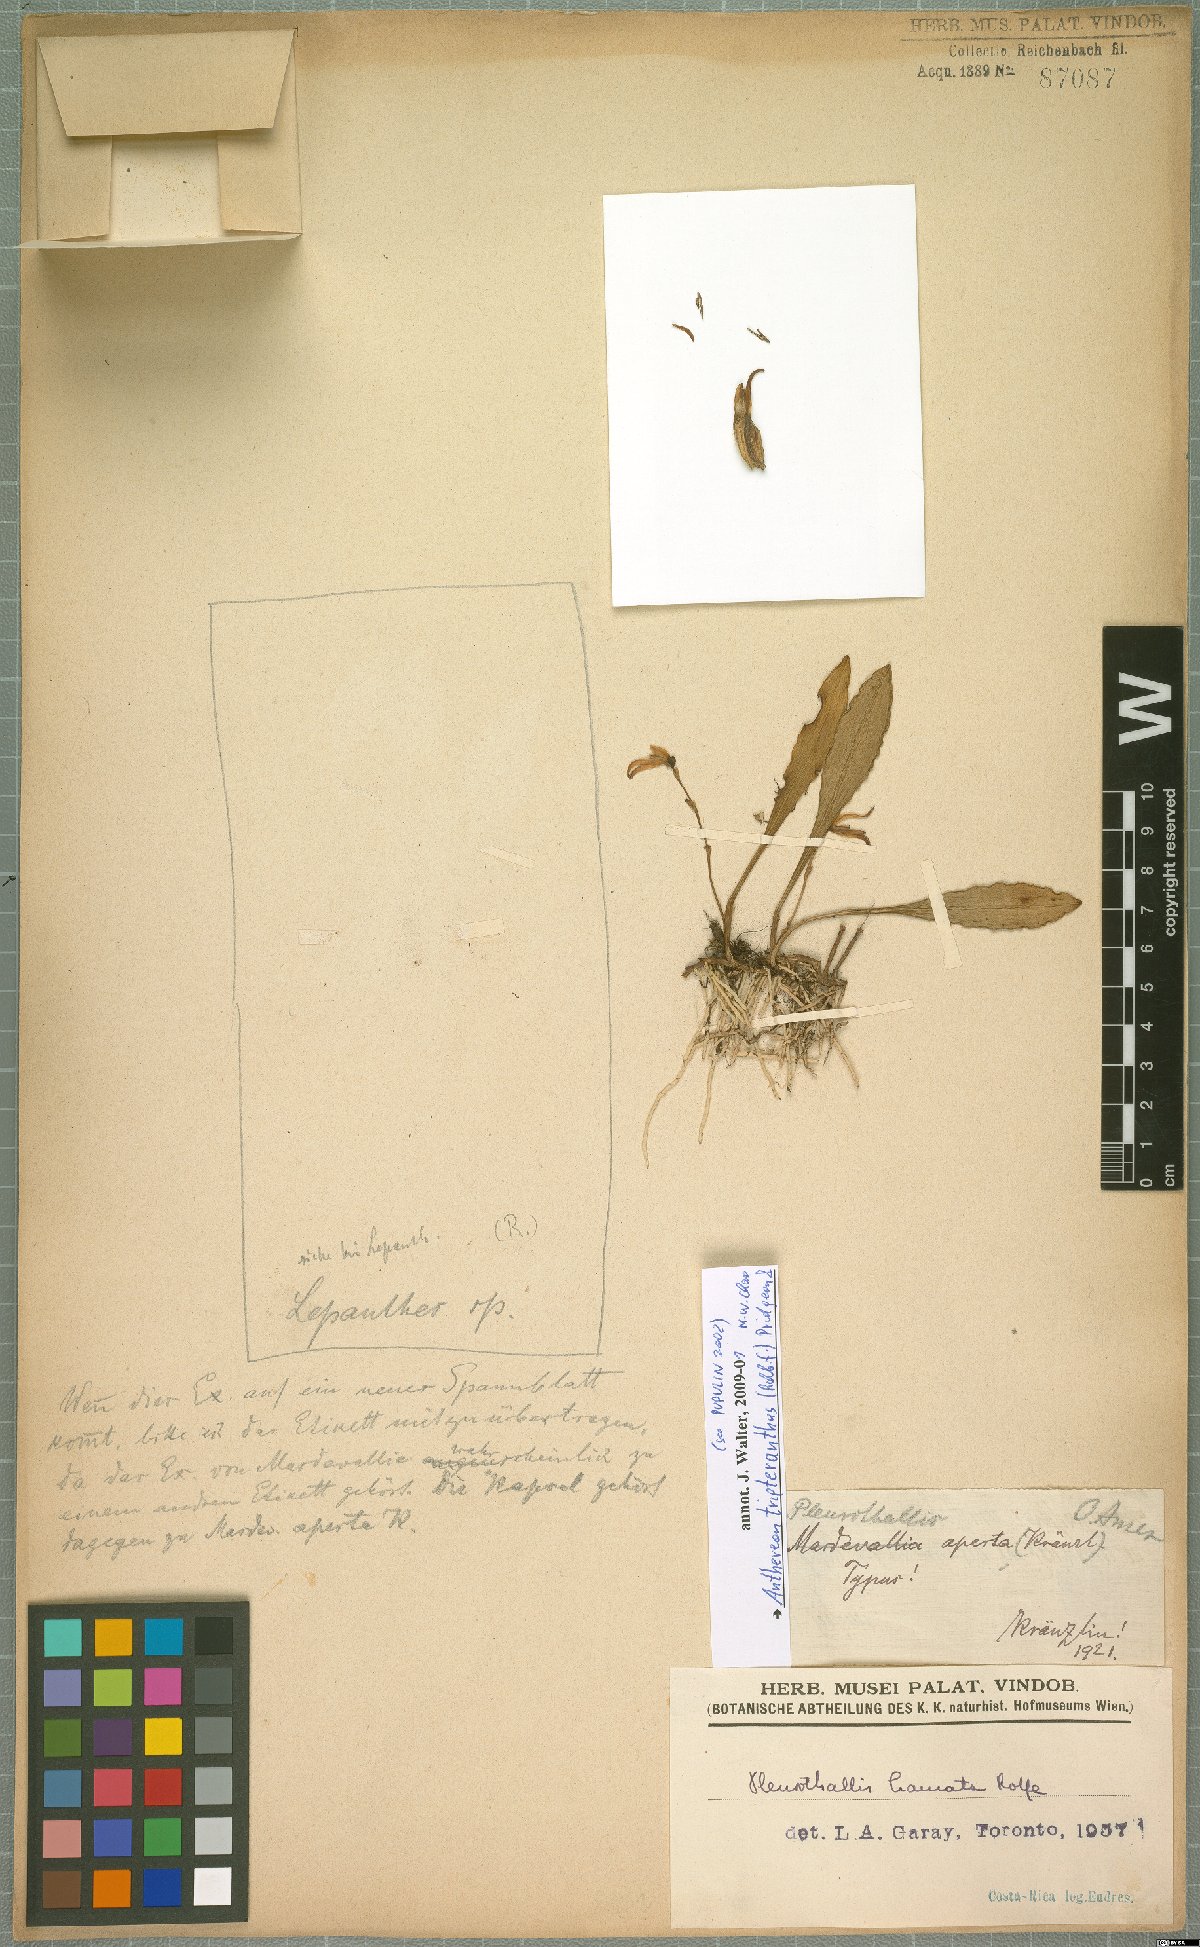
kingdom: Plantae
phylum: Tracheophyta
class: Liliopsida
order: Asparagales
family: Orchidaceae
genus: Pabstiella
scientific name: Pabstiella tripterantha
